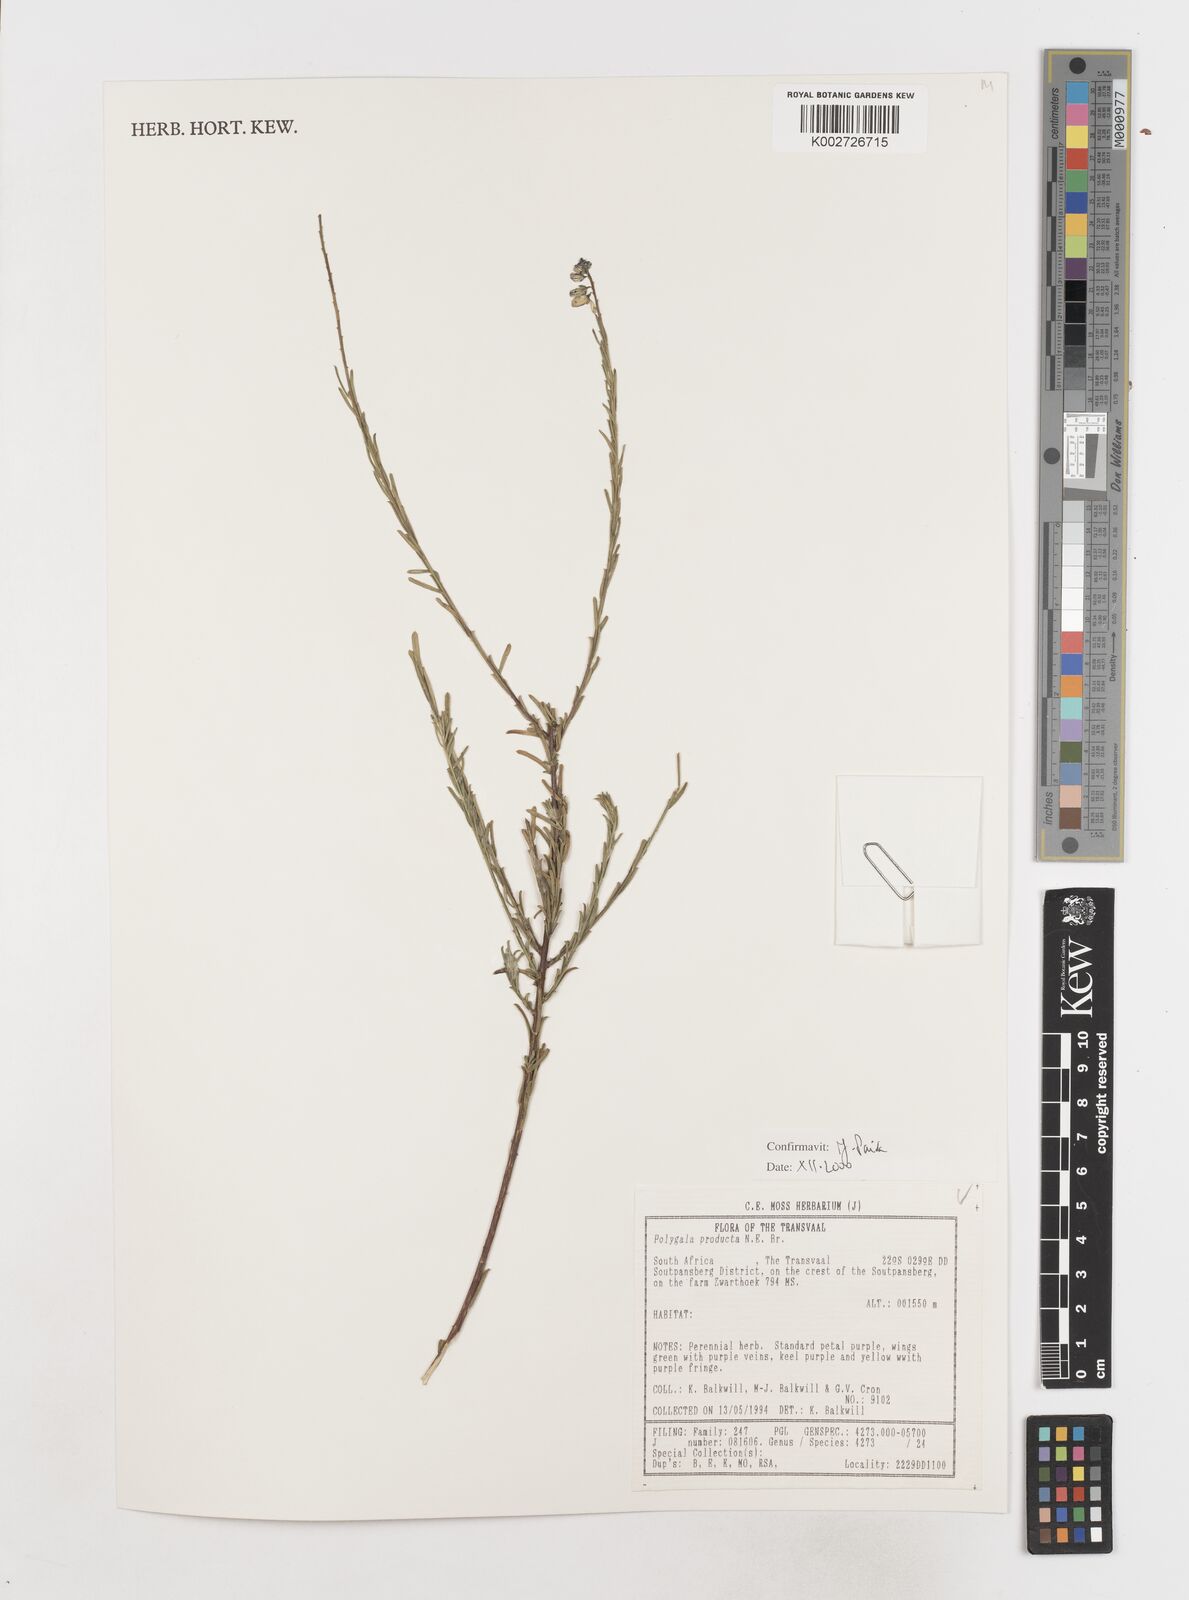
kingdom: Plantae
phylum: Tracheophyta
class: Magnoliopsida
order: Fabales
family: Polygalaceae
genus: Polygala
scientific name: Polygala producta
